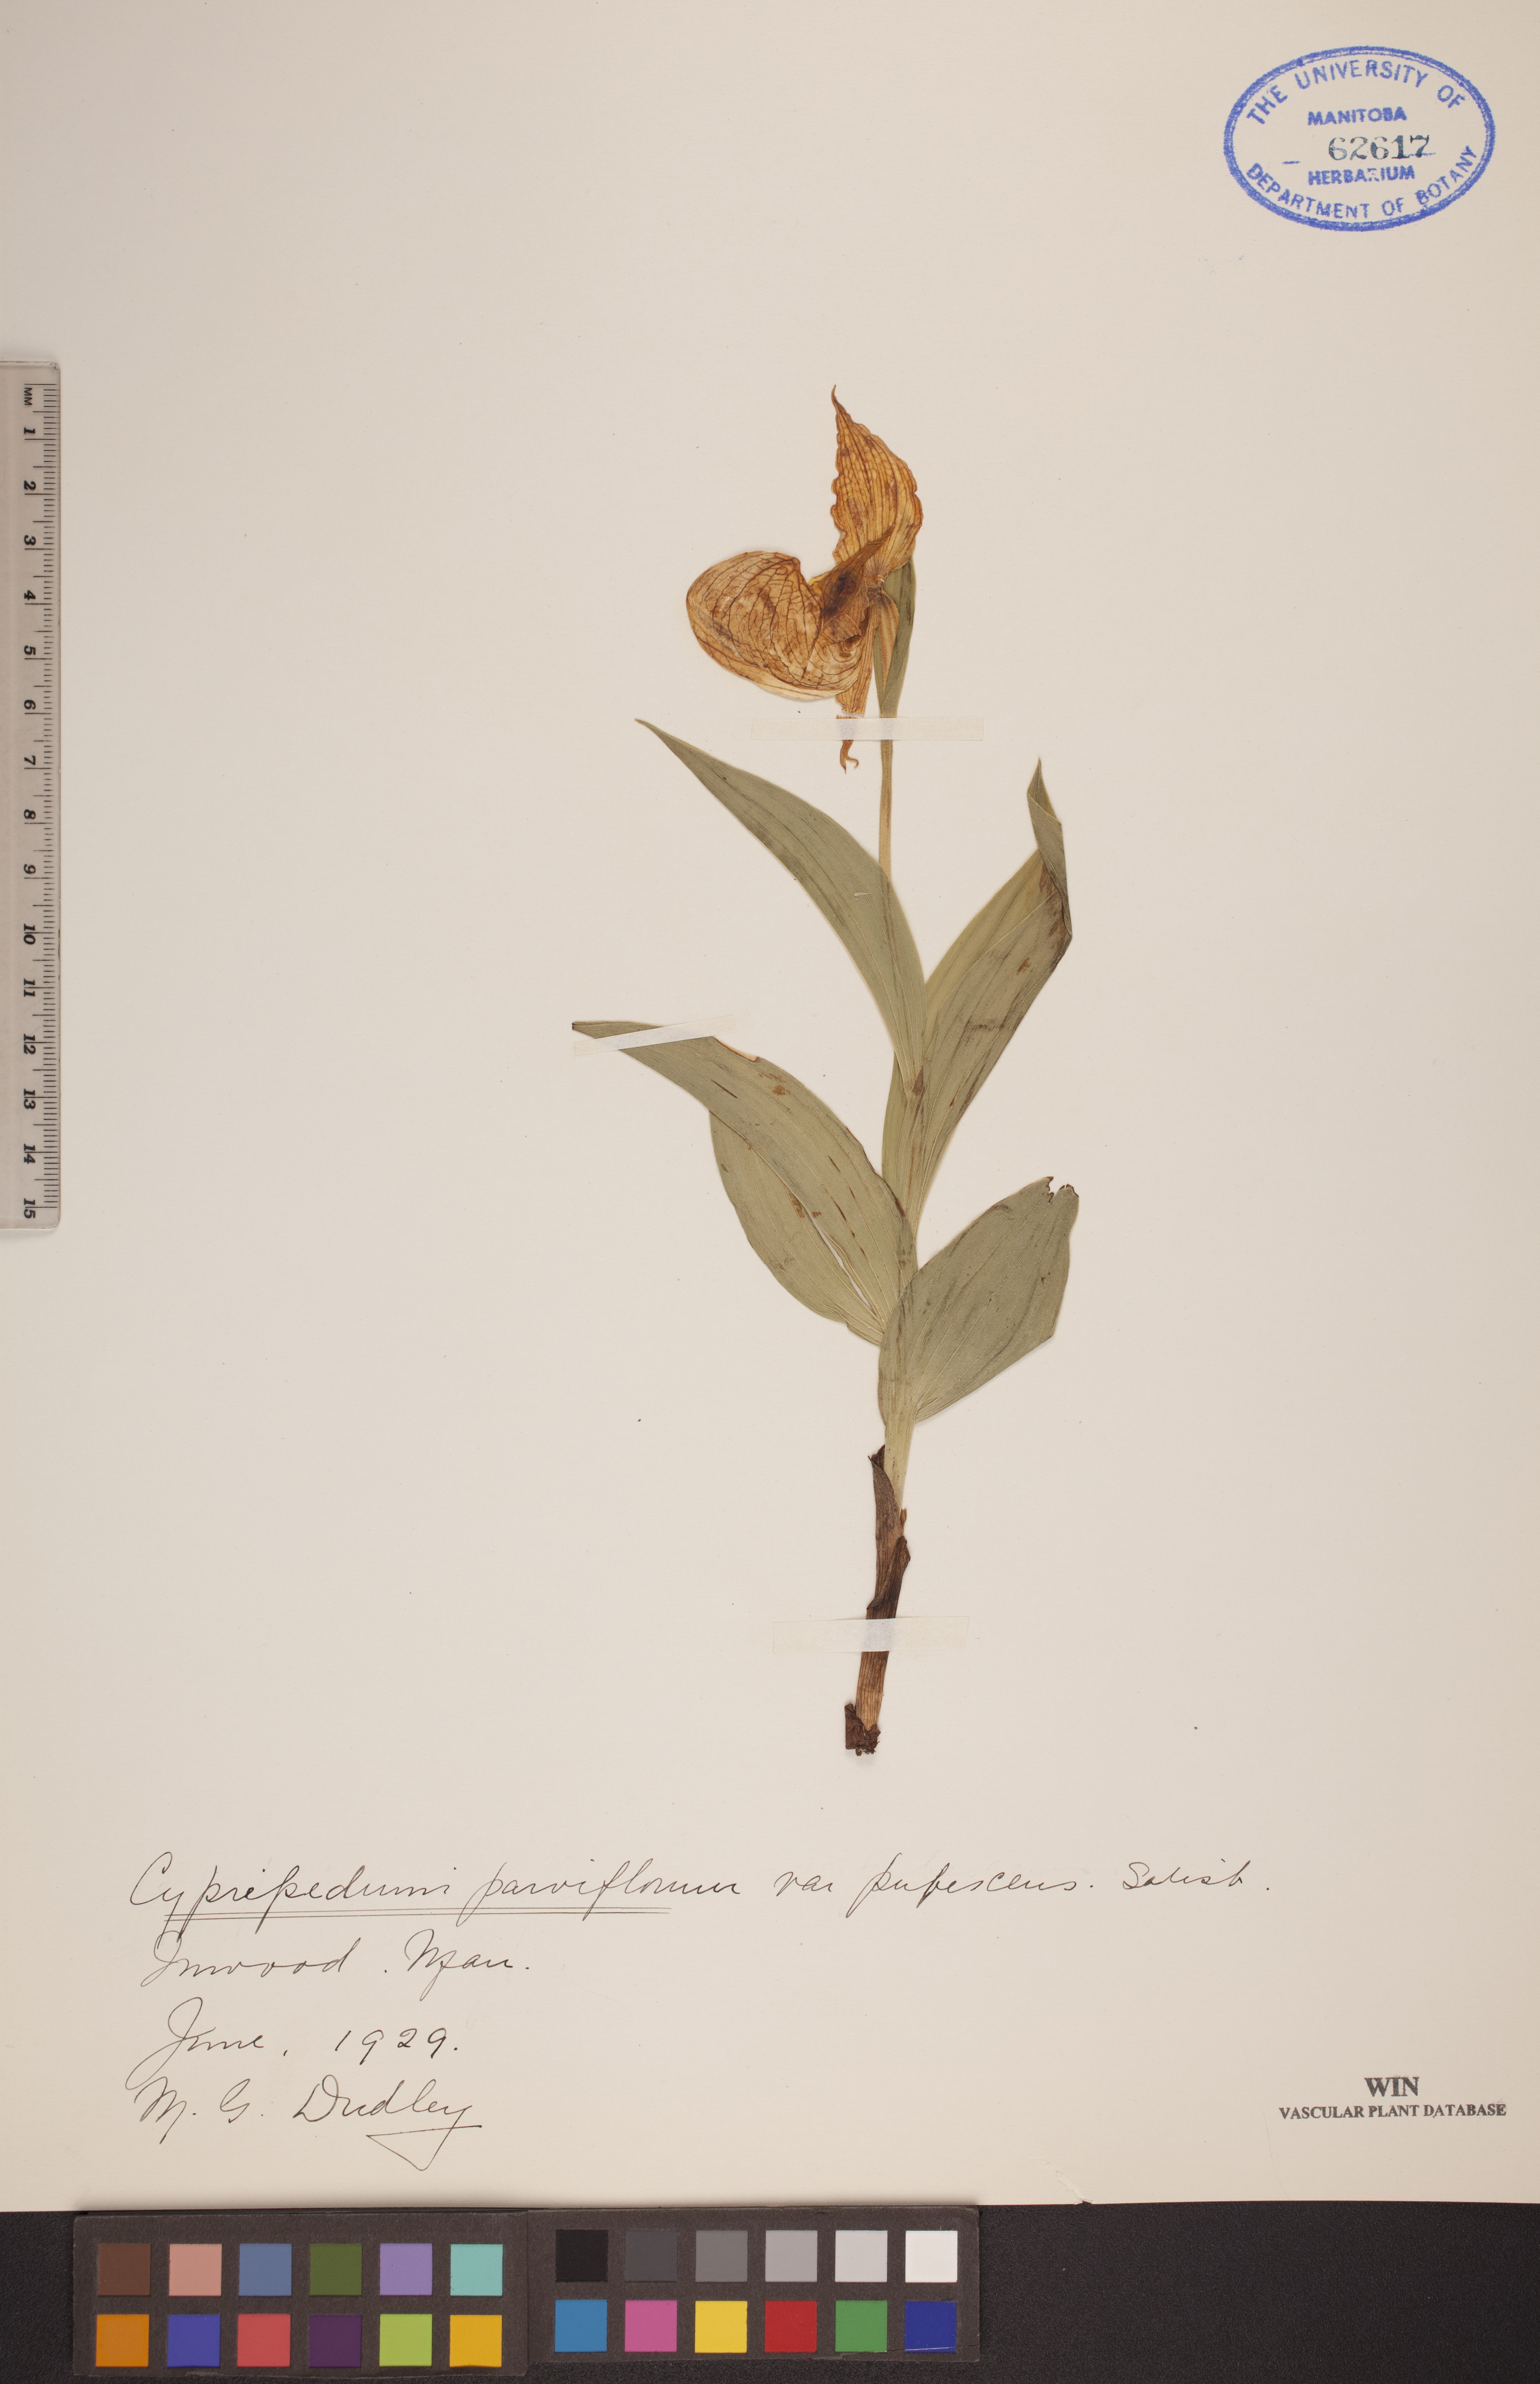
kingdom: Plantae
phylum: Tracheophyta
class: Liliopsida
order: Asparagales
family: Orchidaceae
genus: Cypripedium
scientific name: Cypripedium parviflorum
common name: American yellow lady's-slipper
